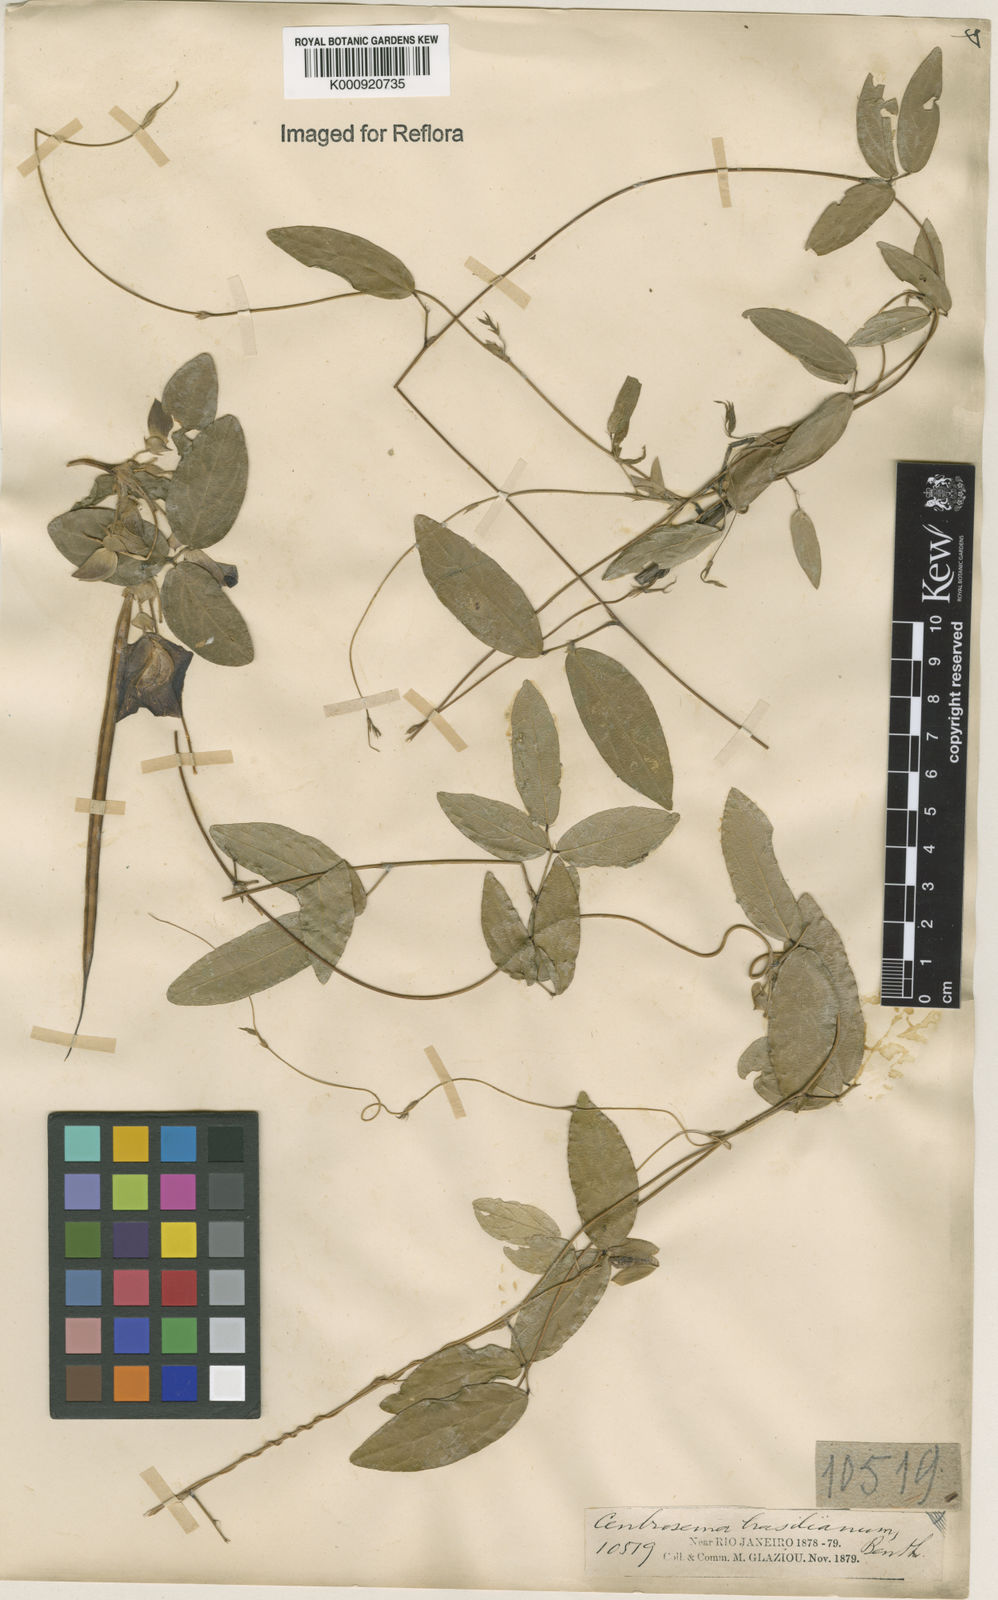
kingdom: Plantae
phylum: Tracheophyta
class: Magnoliopsida
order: Fabales
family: Fabaceae
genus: Centrosema
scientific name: Centrosema brasilianum
